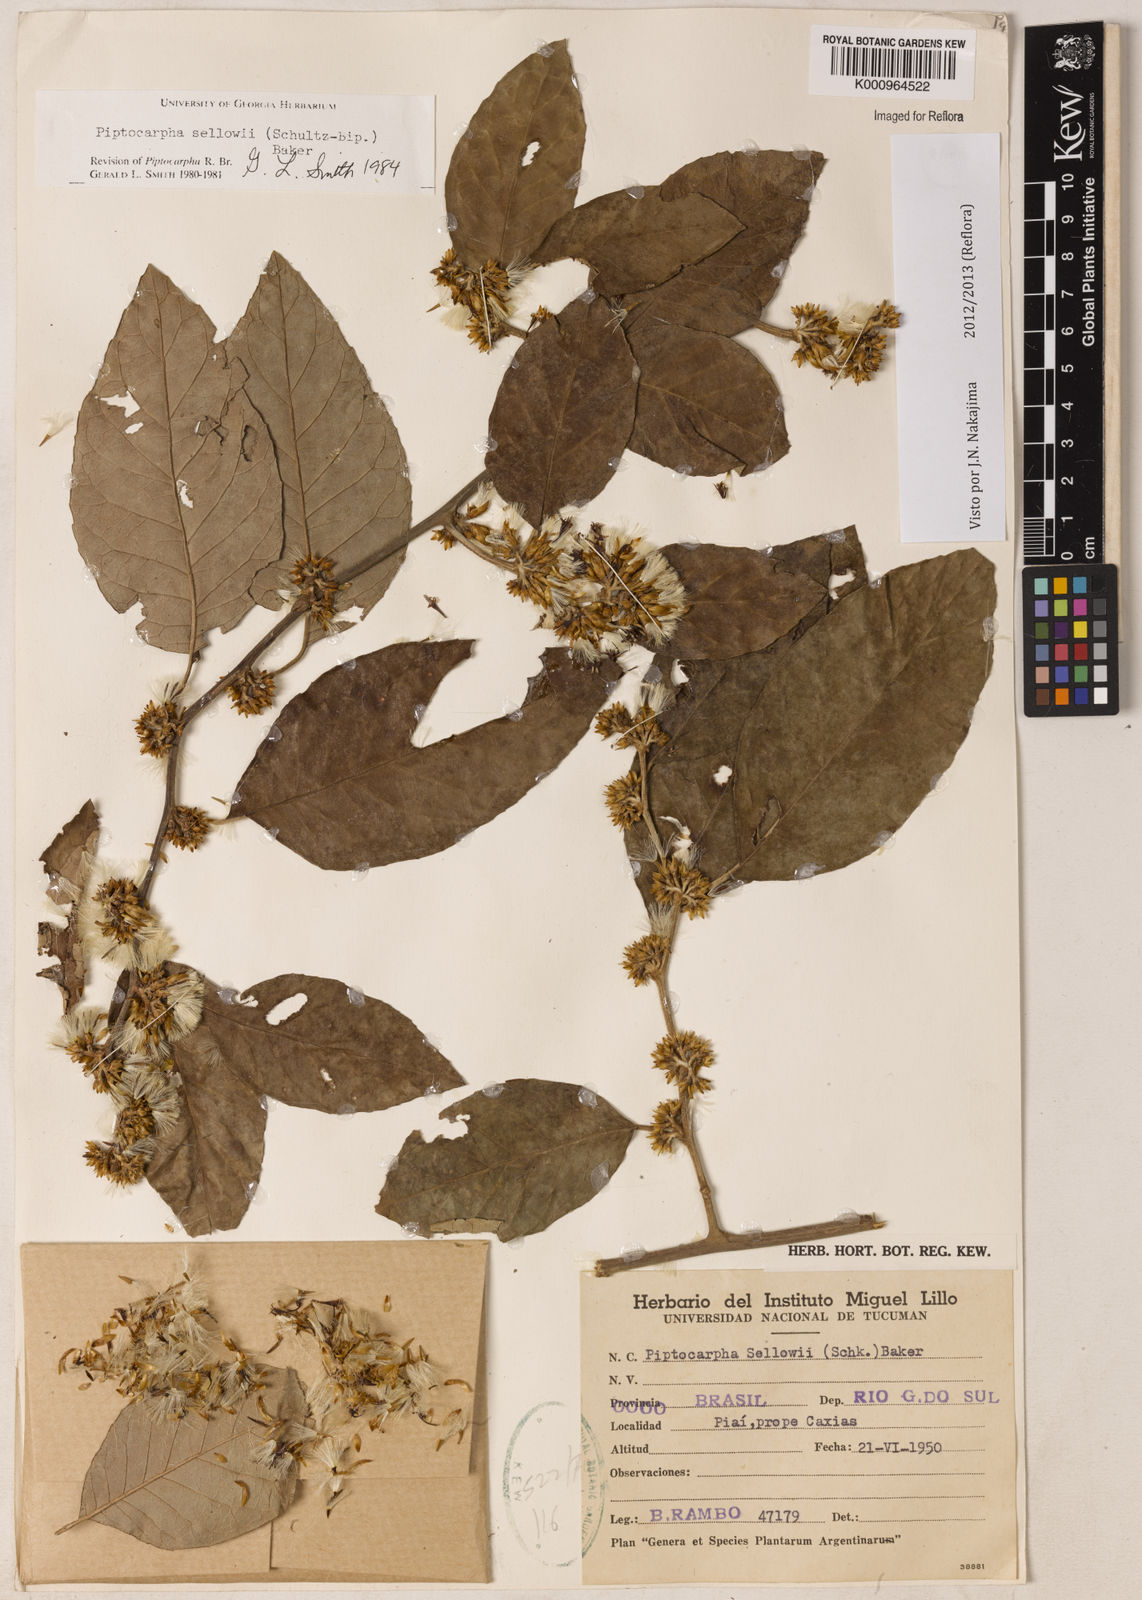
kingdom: Plantae
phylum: Tracheophyta
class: Magnoliopsida
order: Asterales
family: Asteraceae
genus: Piptocarpha
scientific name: Piptocarpha
